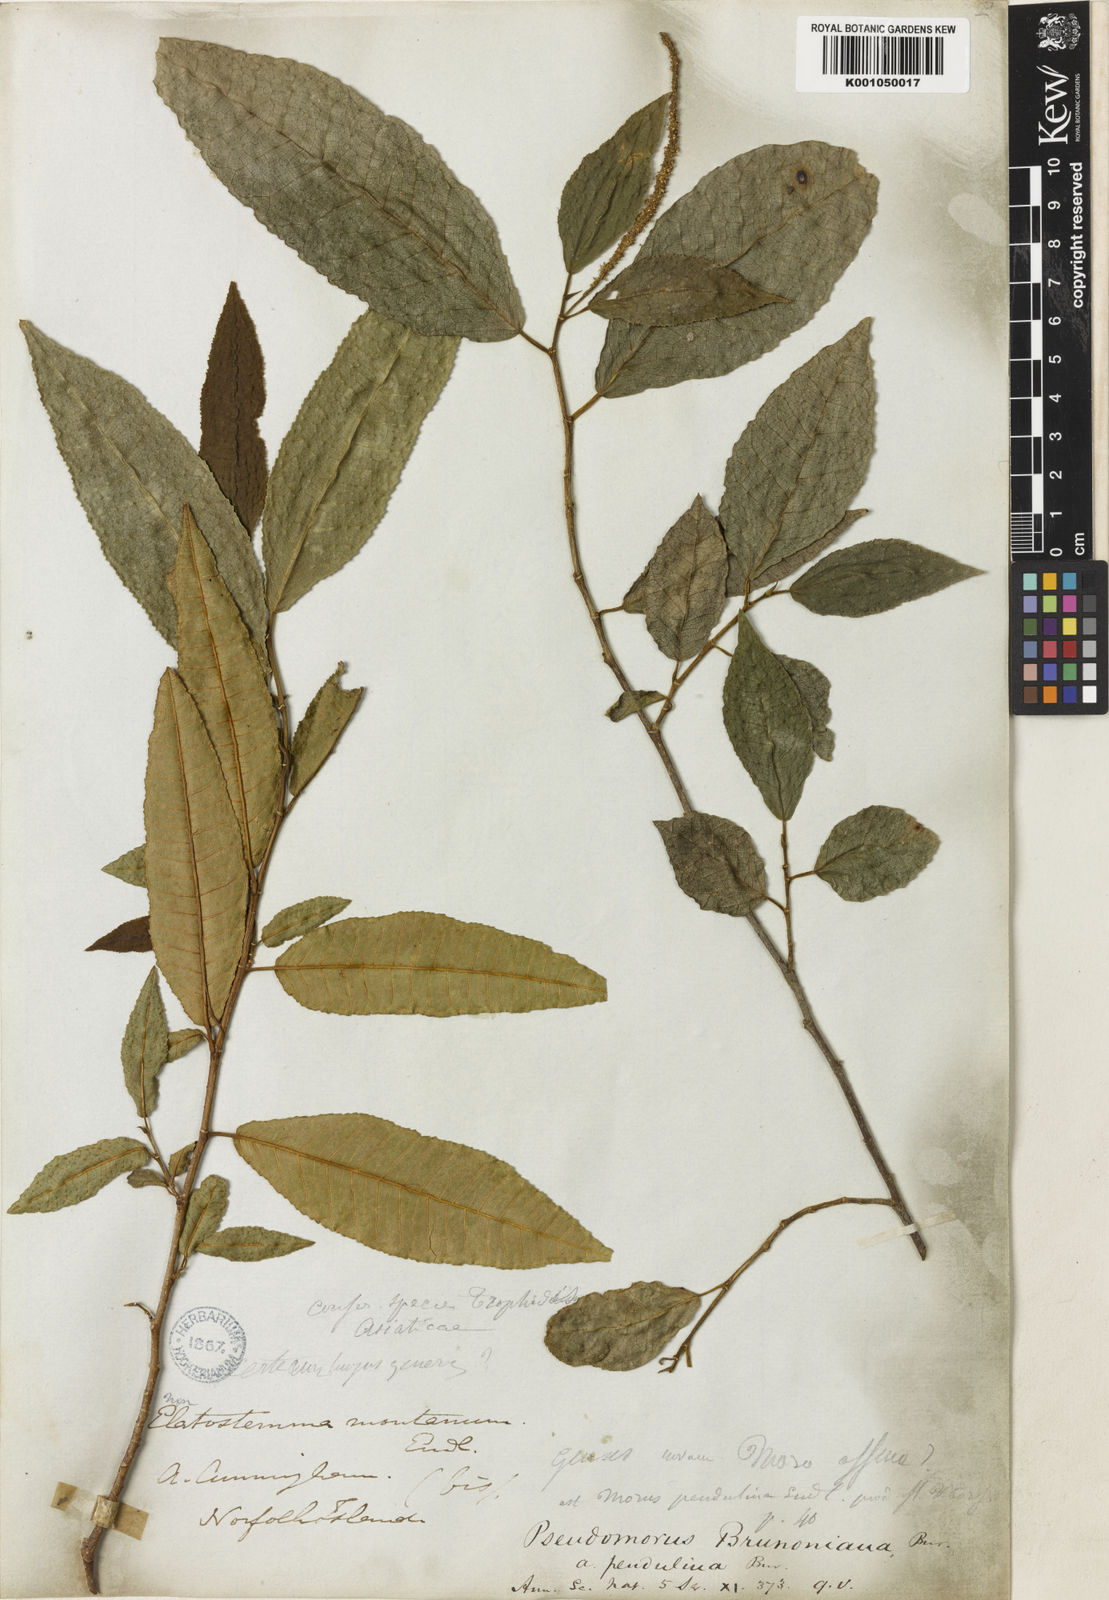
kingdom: Plantae
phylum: Tracheophyta
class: Magnoliopsida
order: Rosales
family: Moraceae
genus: Paratrophis
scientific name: Paratrophis pendulina
